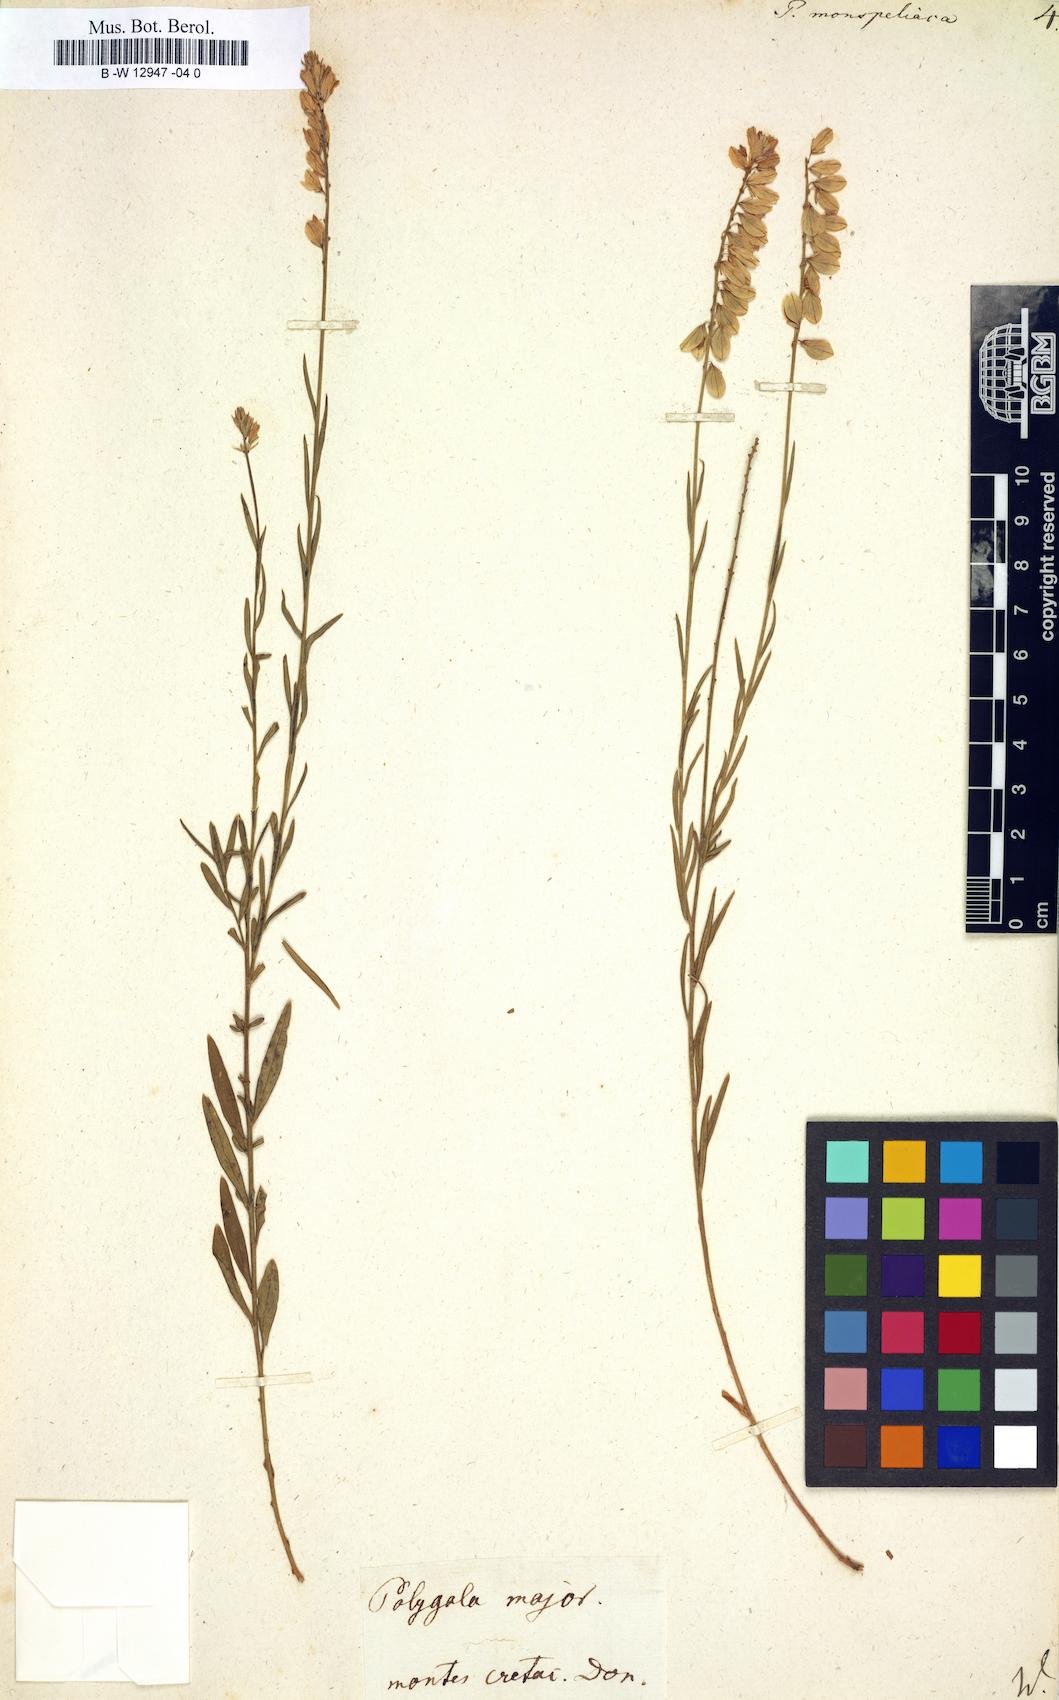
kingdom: Plantae
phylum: Tracheophyta
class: Magnoliopsida
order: Fabales
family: Polygalaceae
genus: Polygala
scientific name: Polygala monspeliaca
